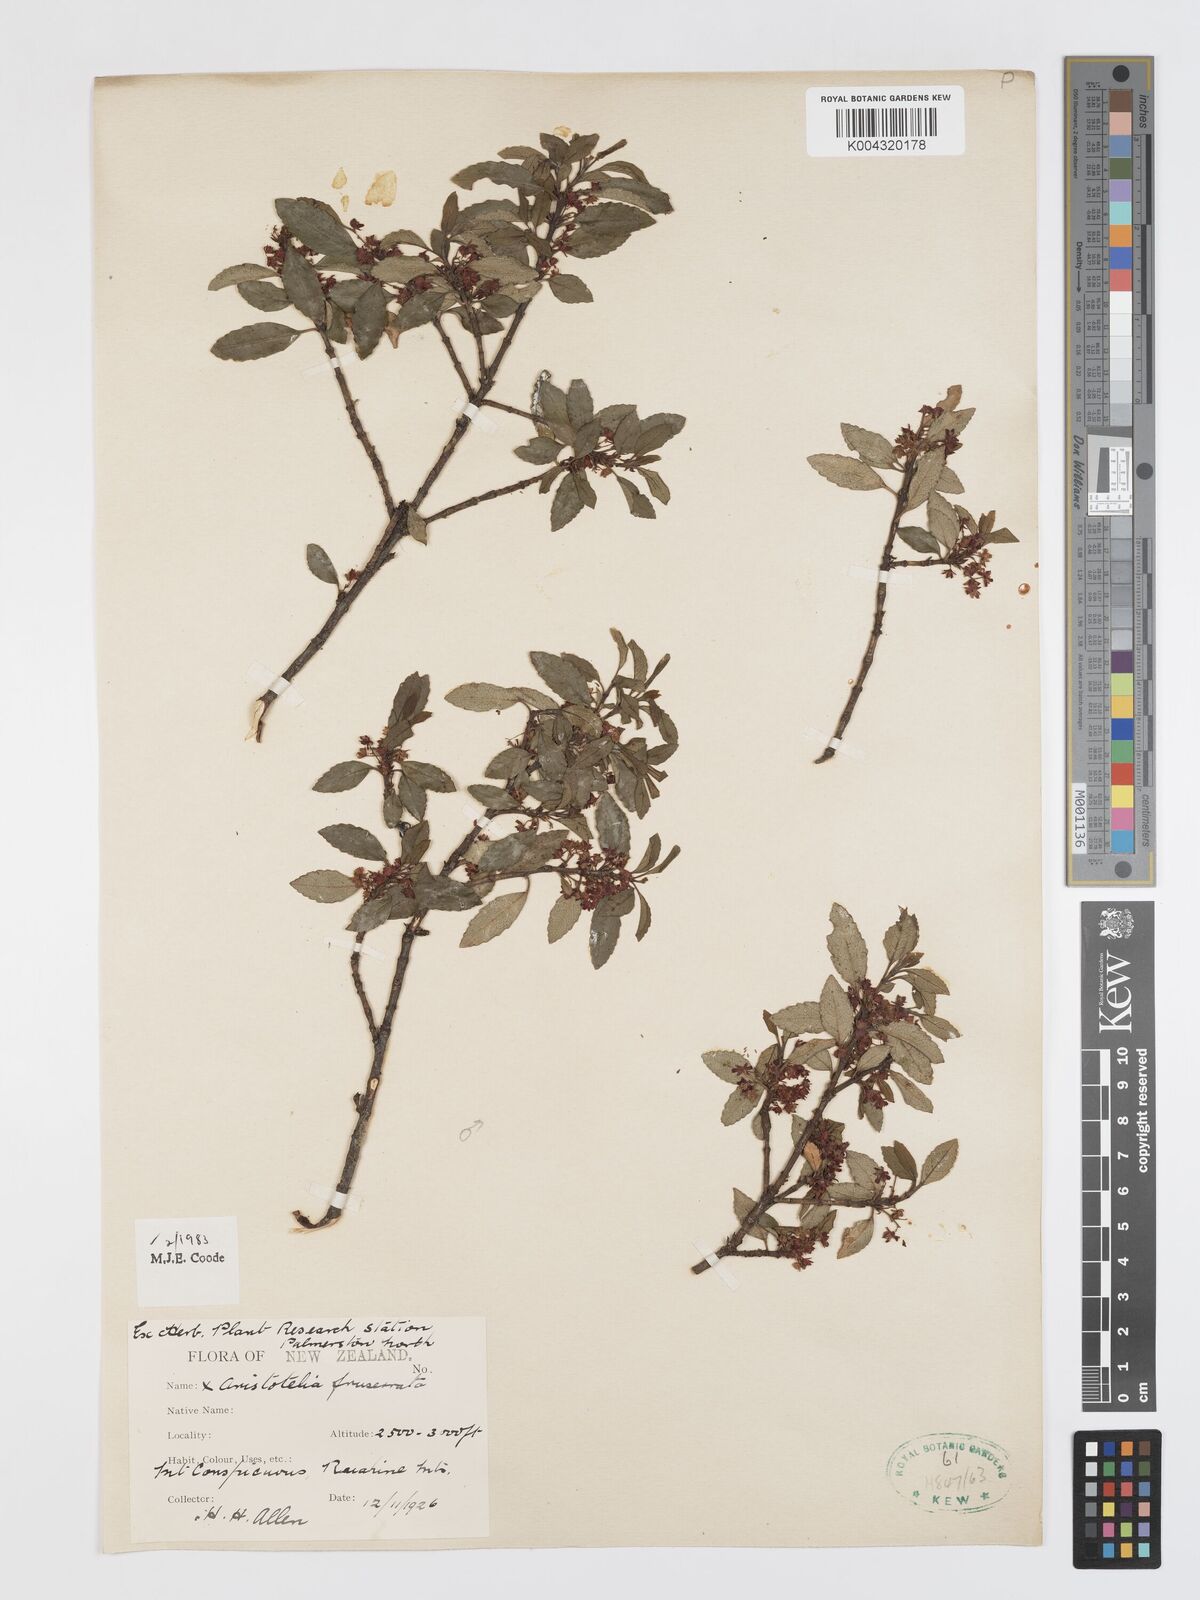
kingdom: Plantae
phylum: Tracheophyta
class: Magnoliopsida
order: Oxalidales
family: Elaeocarpaceae
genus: Aristotelia
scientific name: Aristotelia fruticosa
